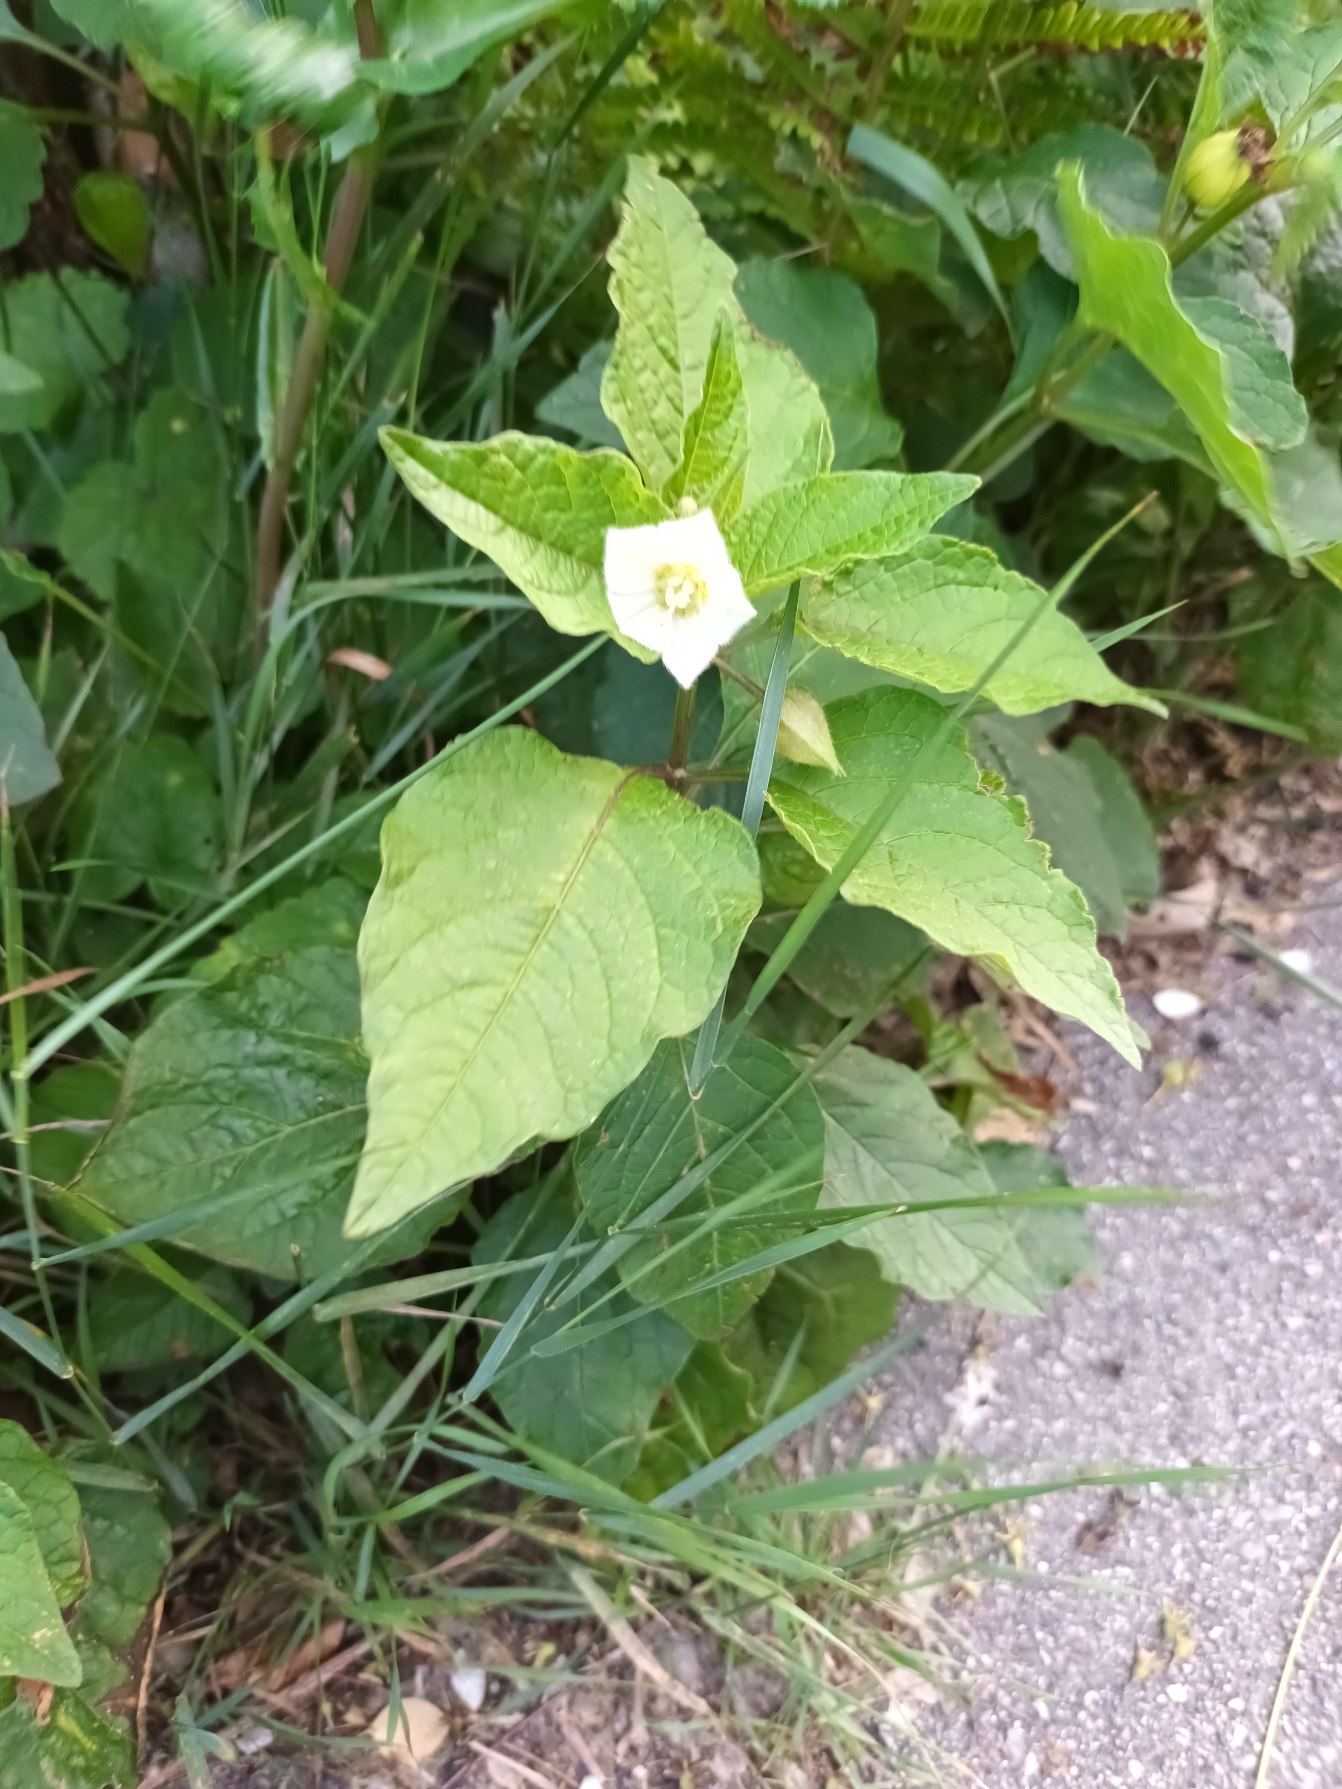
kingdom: Plantae
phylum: Tracheophyta
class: Magnoliopsida
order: Solanales
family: Solanaceae
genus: Alkekengi
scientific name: Alkekengi officinarum
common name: Jødekirsebær
